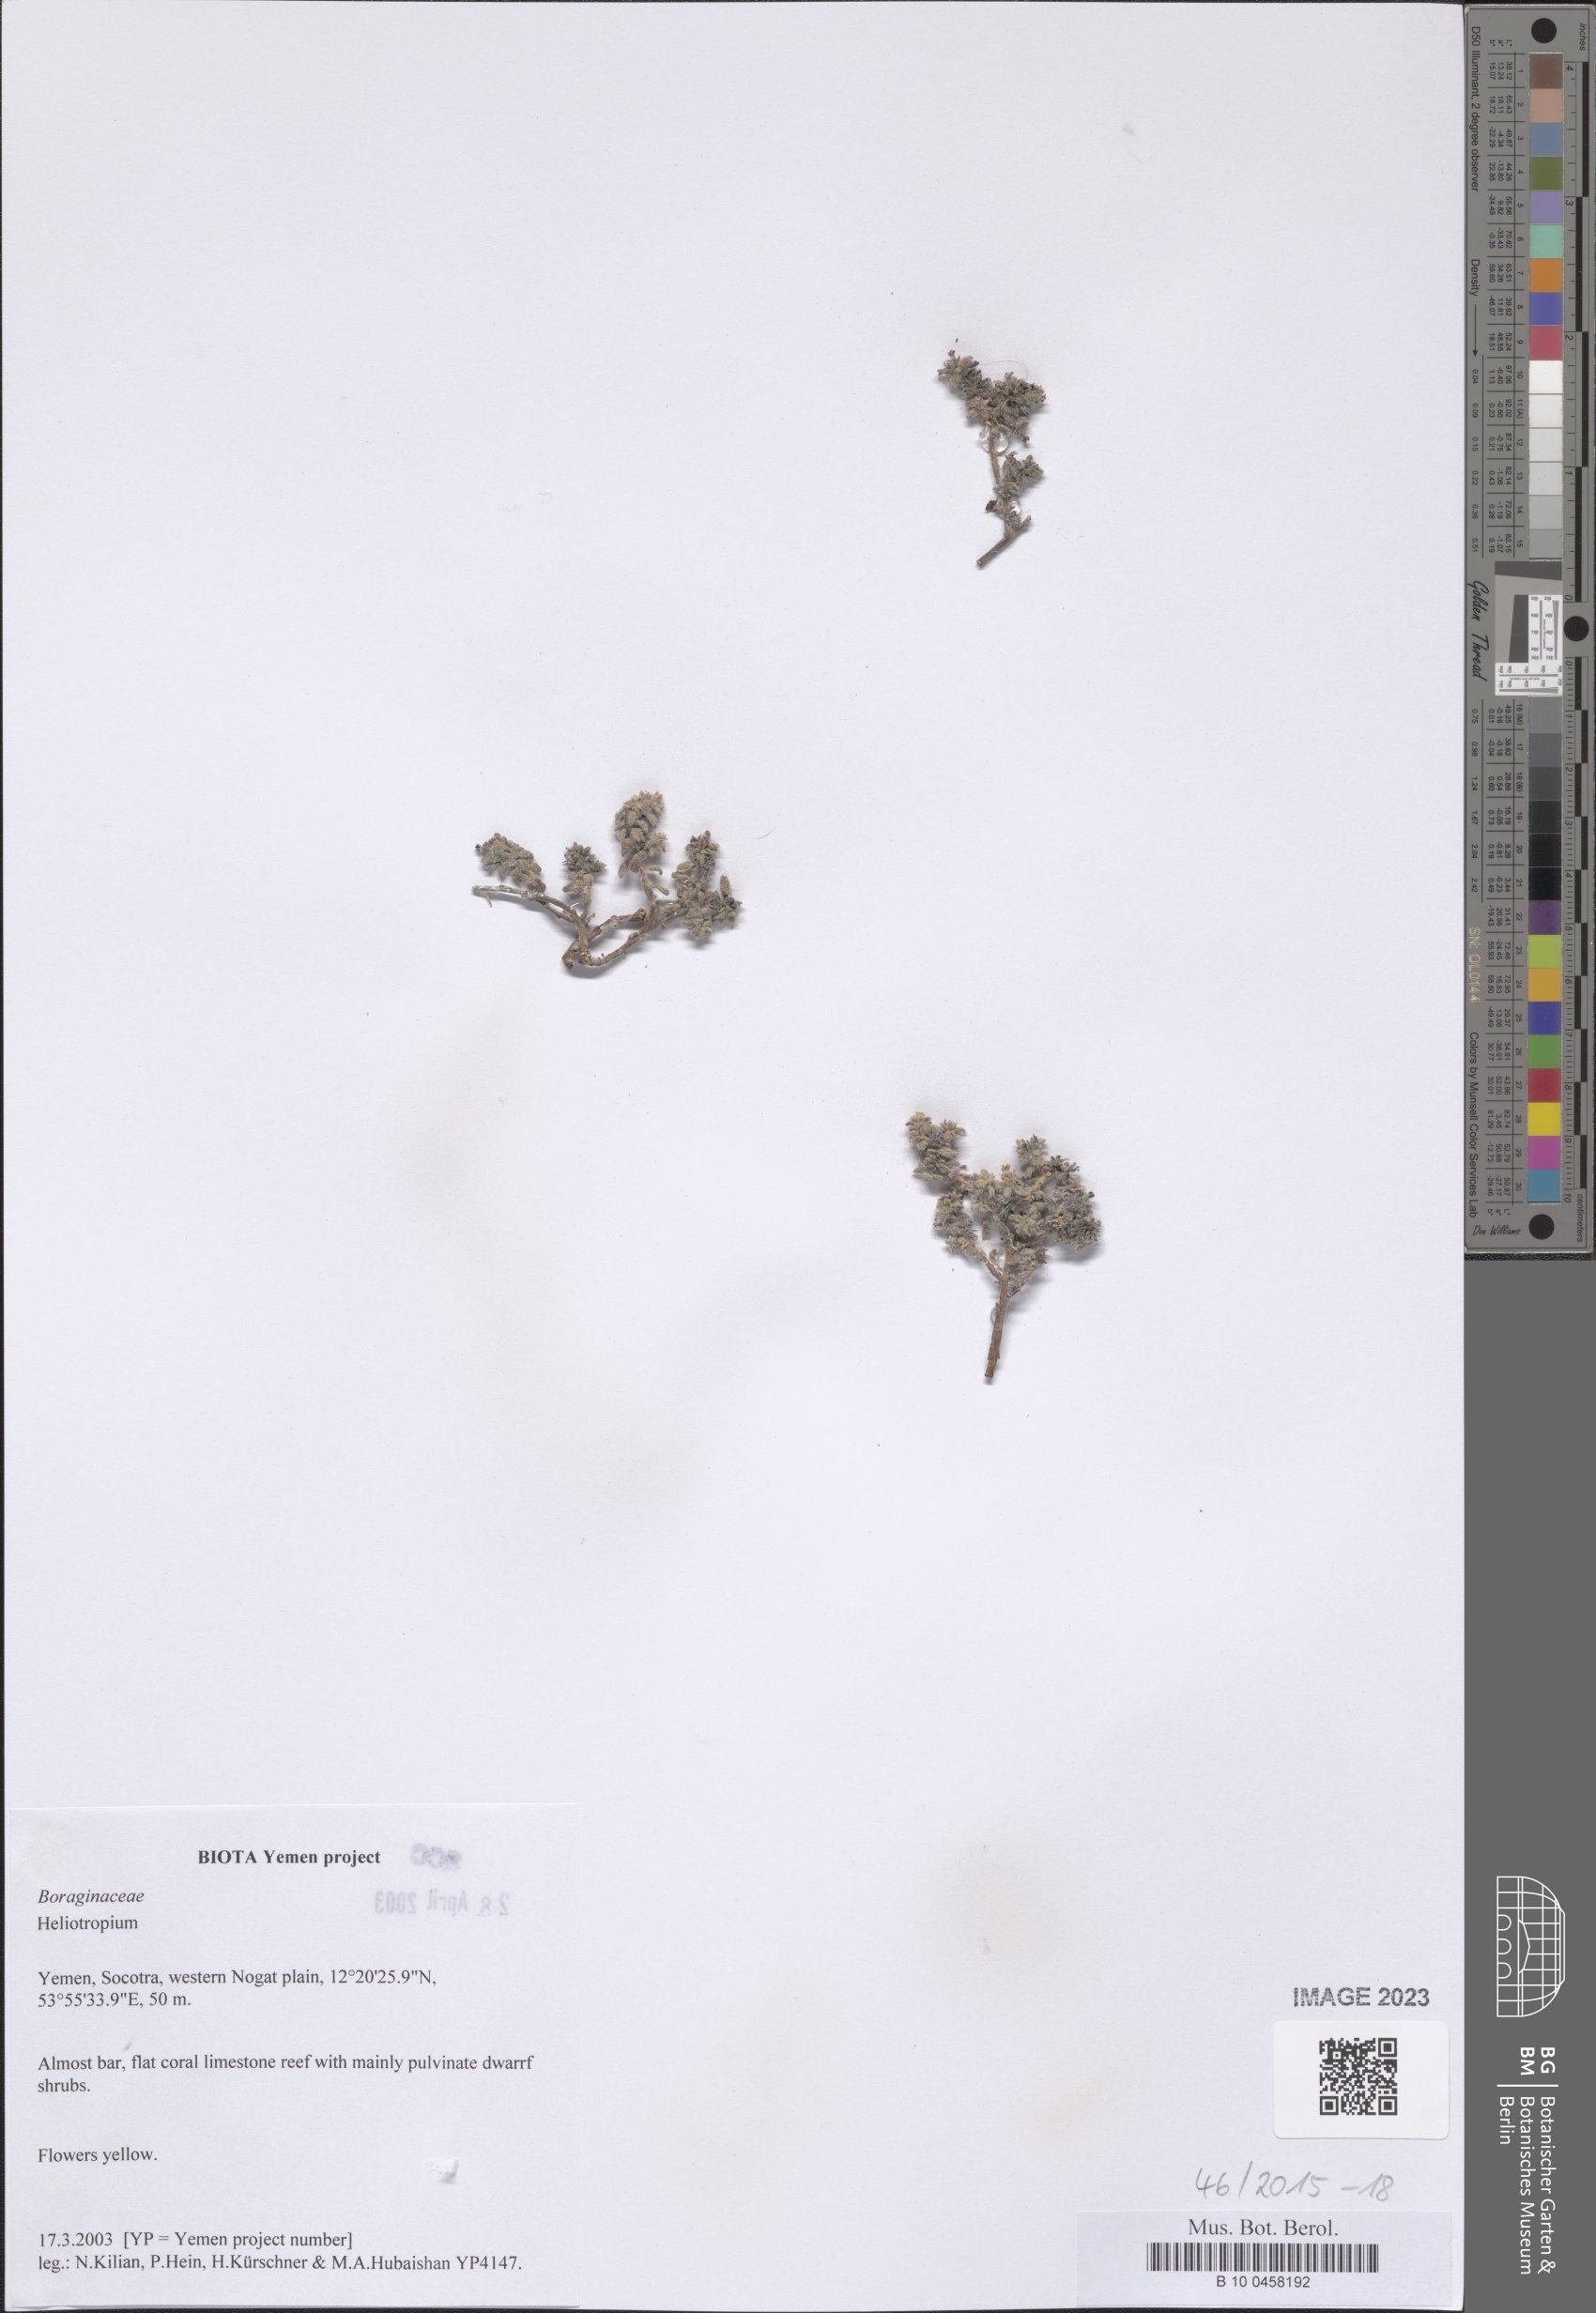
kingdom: Plantae
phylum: Tracheophyta
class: Magnoliopsida
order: Boraginales
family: Heliotropiaceae
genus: Heliotropium
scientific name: Heliotropium
